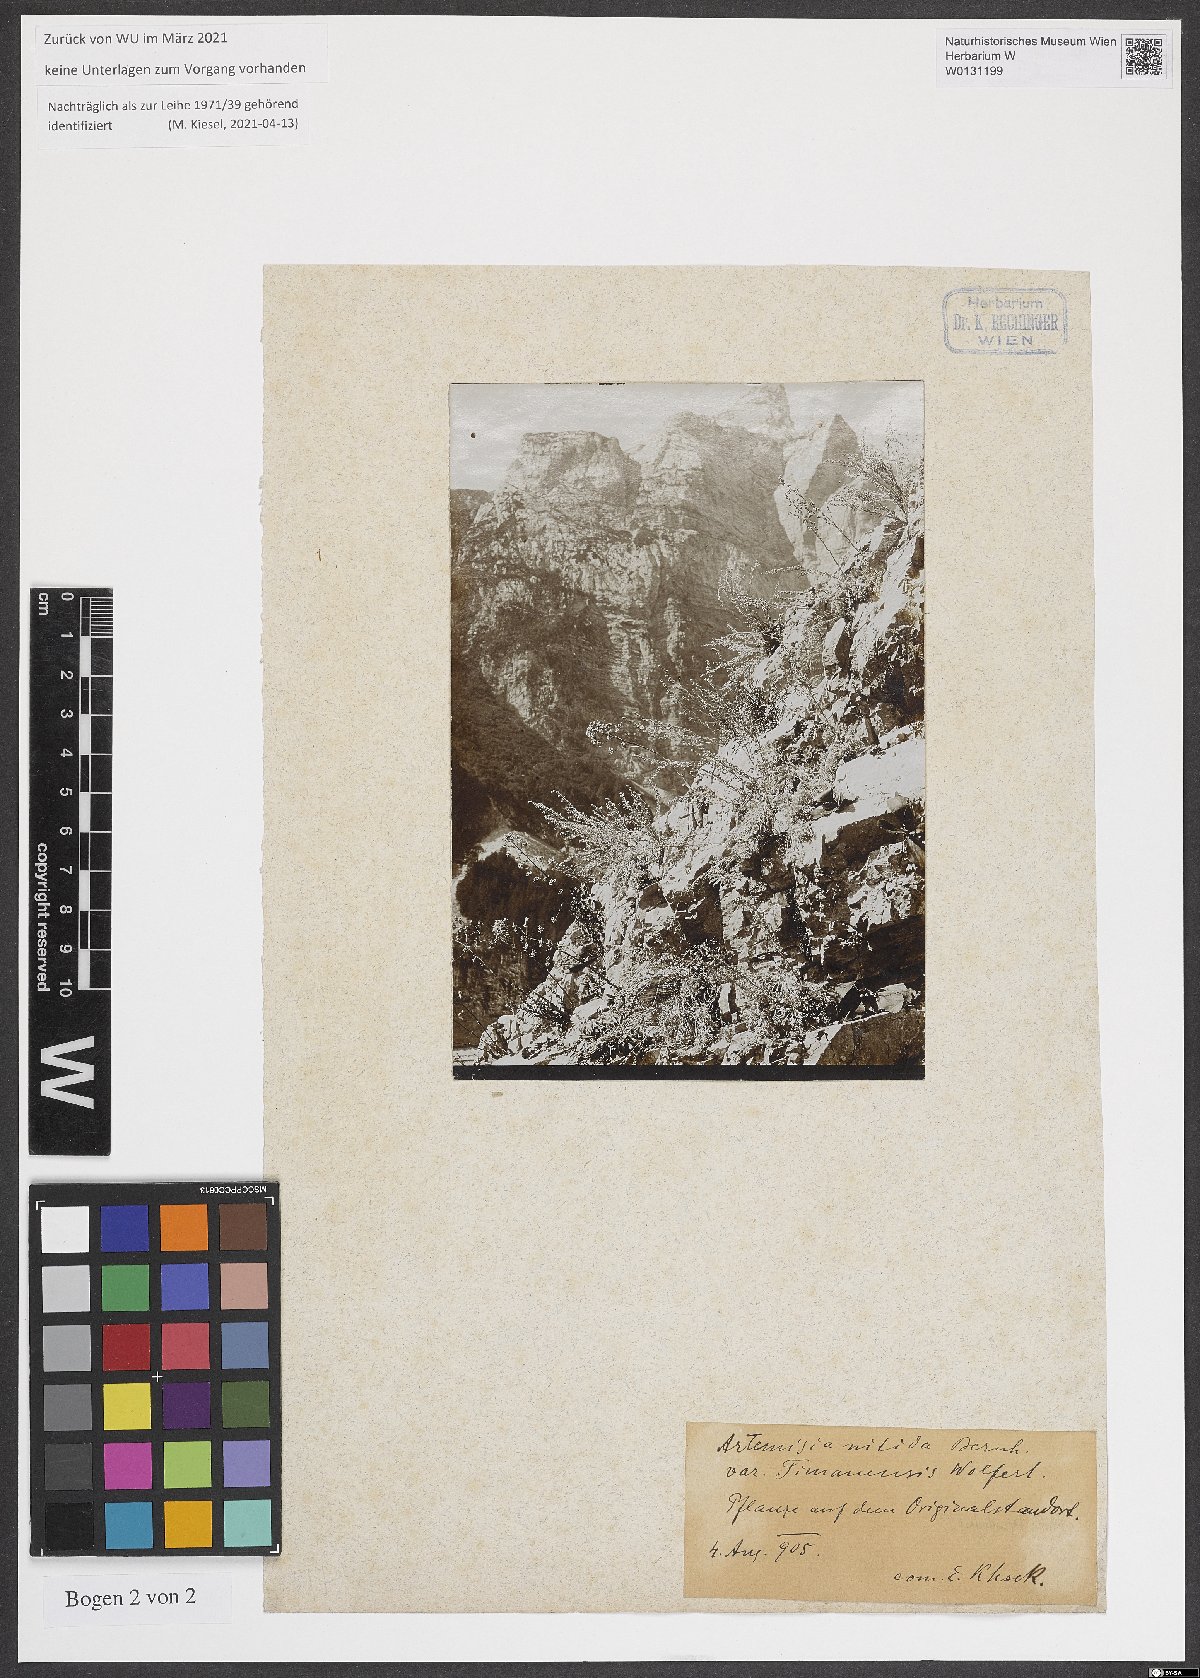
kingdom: Plantae
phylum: Tracheophyta
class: Magnoliopsida
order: Asterales
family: Asteraceae
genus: Artemisia
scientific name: Artemisia nitida
